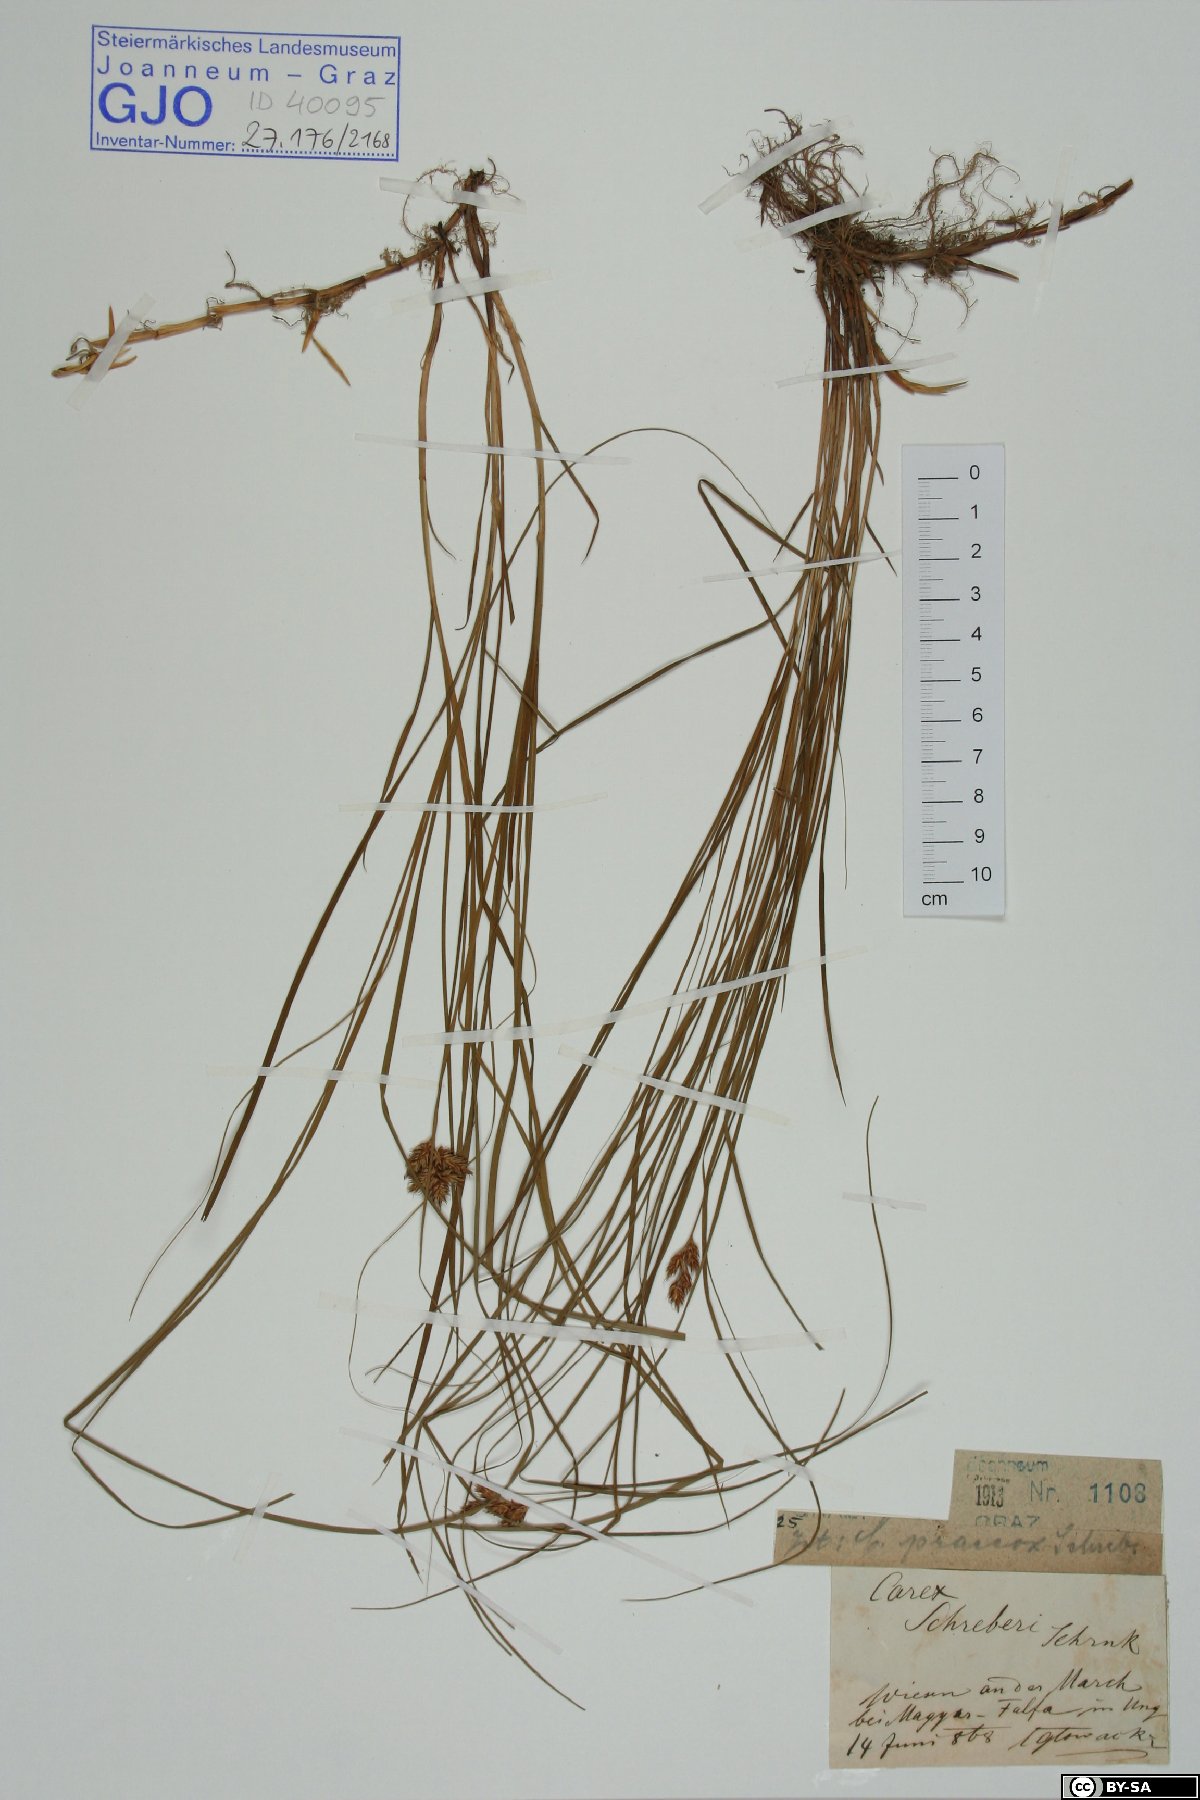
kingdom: Plantae
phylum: Tracheophyta
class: Liliopsida
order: Poales
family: Cyperaceae
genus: Carex
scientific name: Carex praecox
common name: Early sedge
